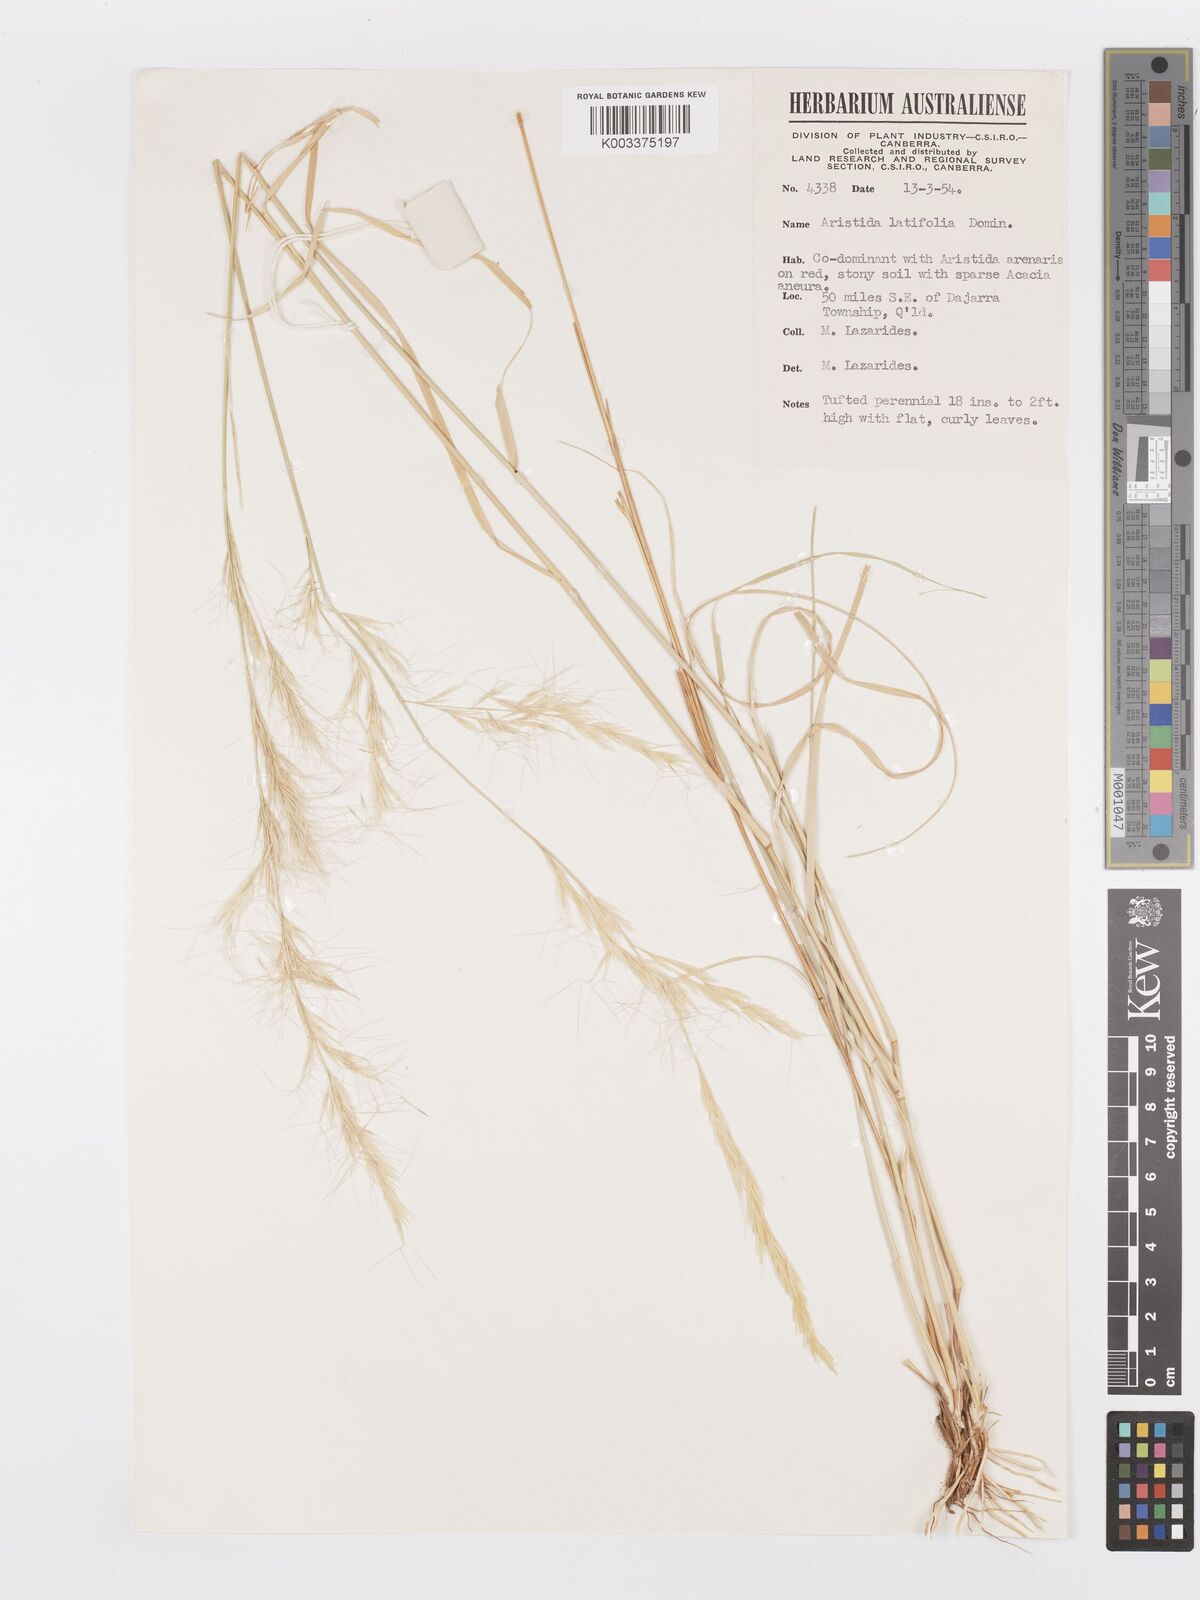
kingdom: Plantae
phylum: Tracheophyta
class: Liliopsida
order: Poales
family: Poaceae
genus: Aristida
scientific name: Aristida latifolia
